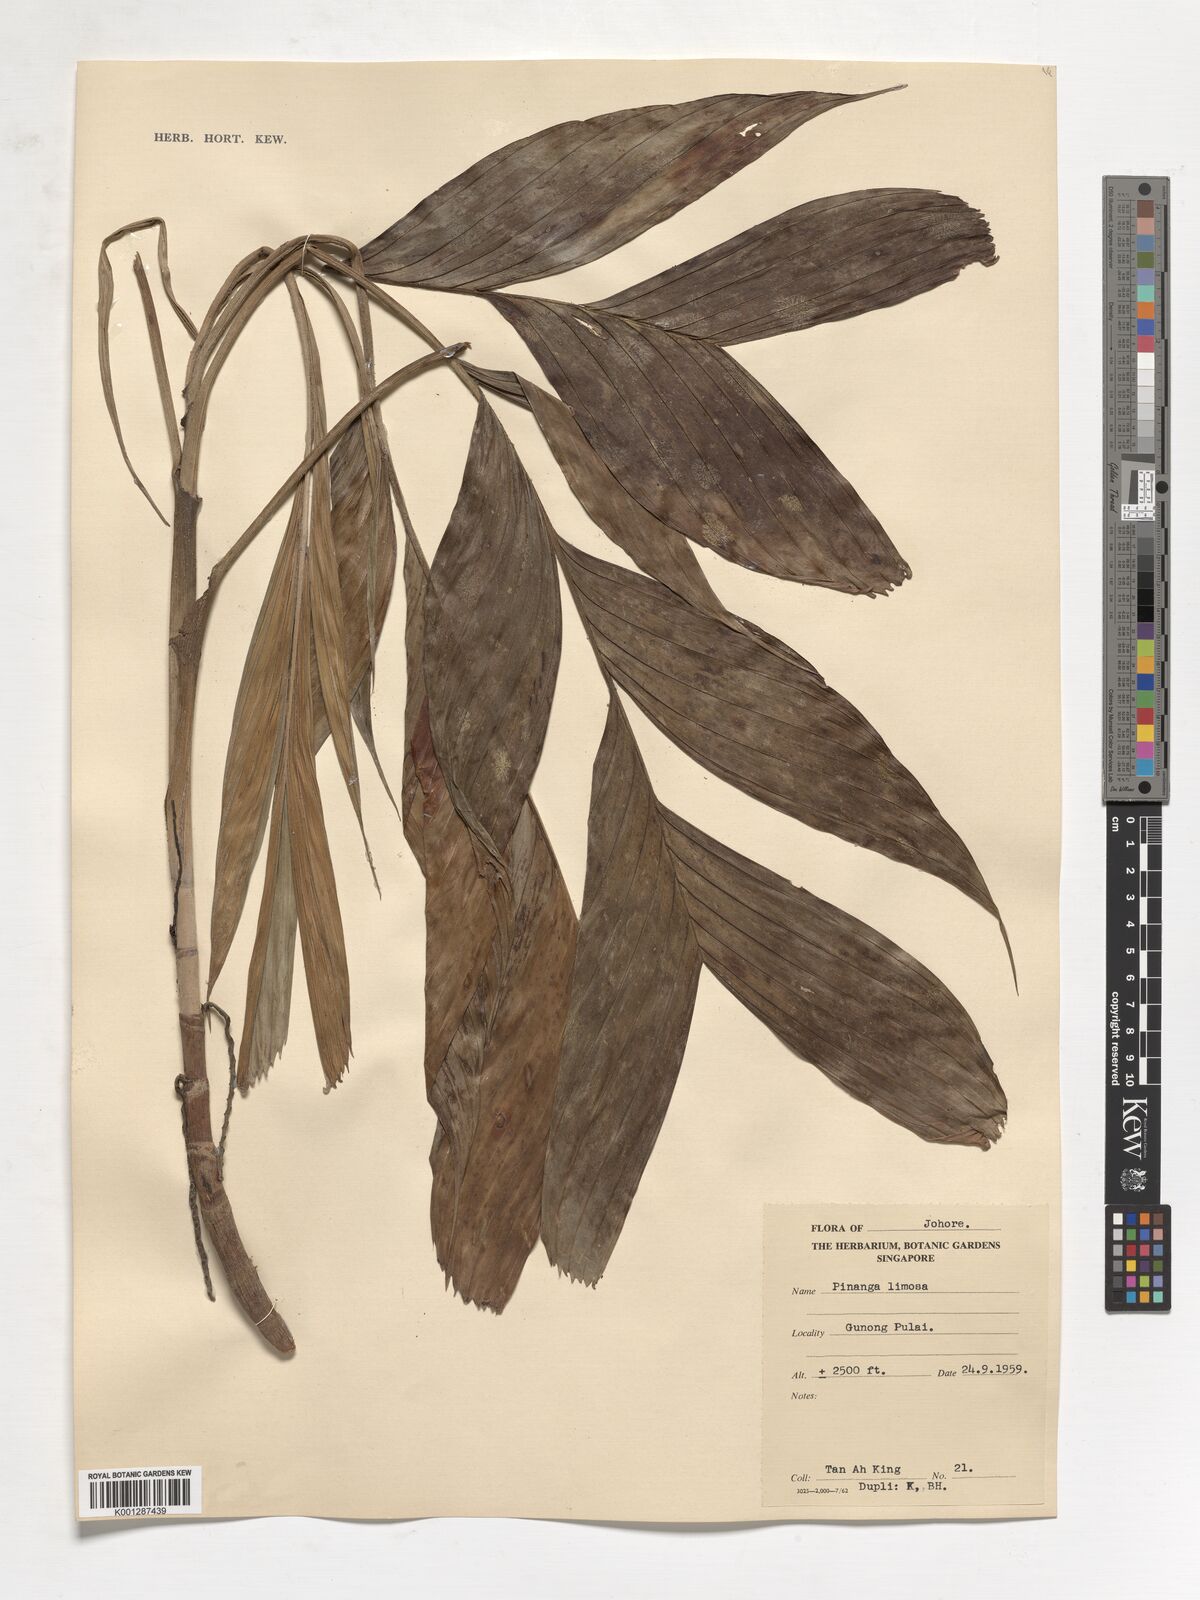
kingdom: Plantae
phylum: Tracheophyta
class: Liliopsida
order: Arecales
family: Arecaceae
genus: Pinanga
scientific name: Pinanga limosa
